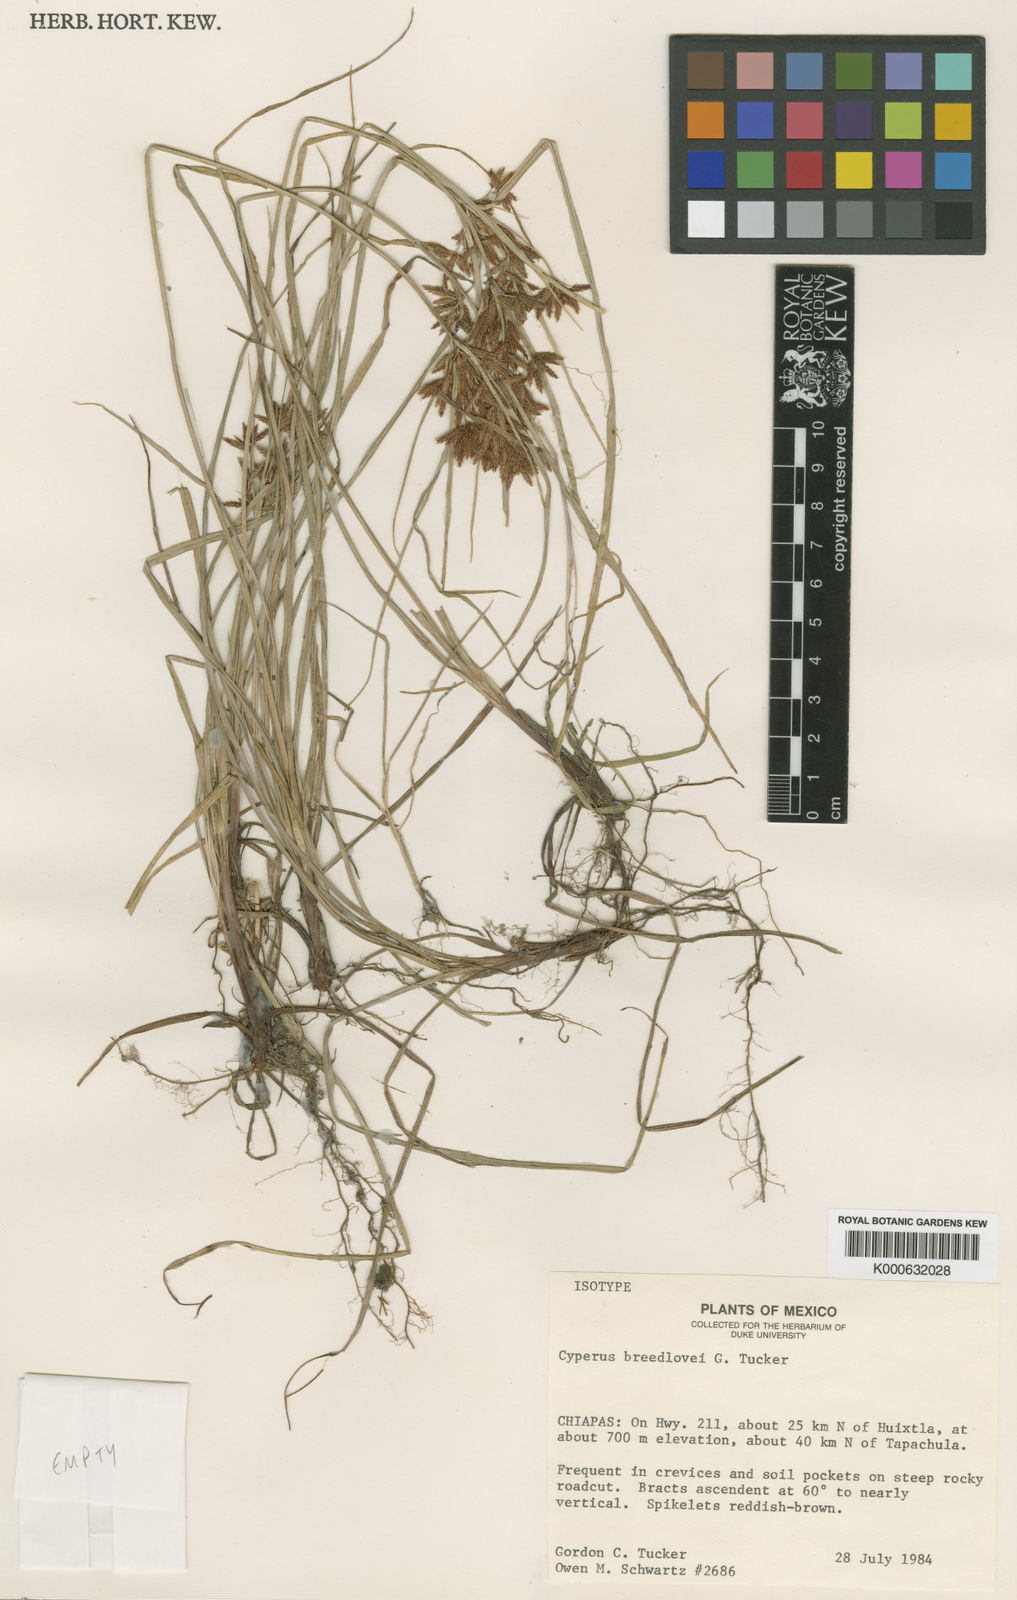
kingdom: Plantae
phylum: Tracheophyta
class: Liliopsida
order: Poales
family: Cyperaceae
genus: Cyperus
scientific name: Cyperus breedlovei
